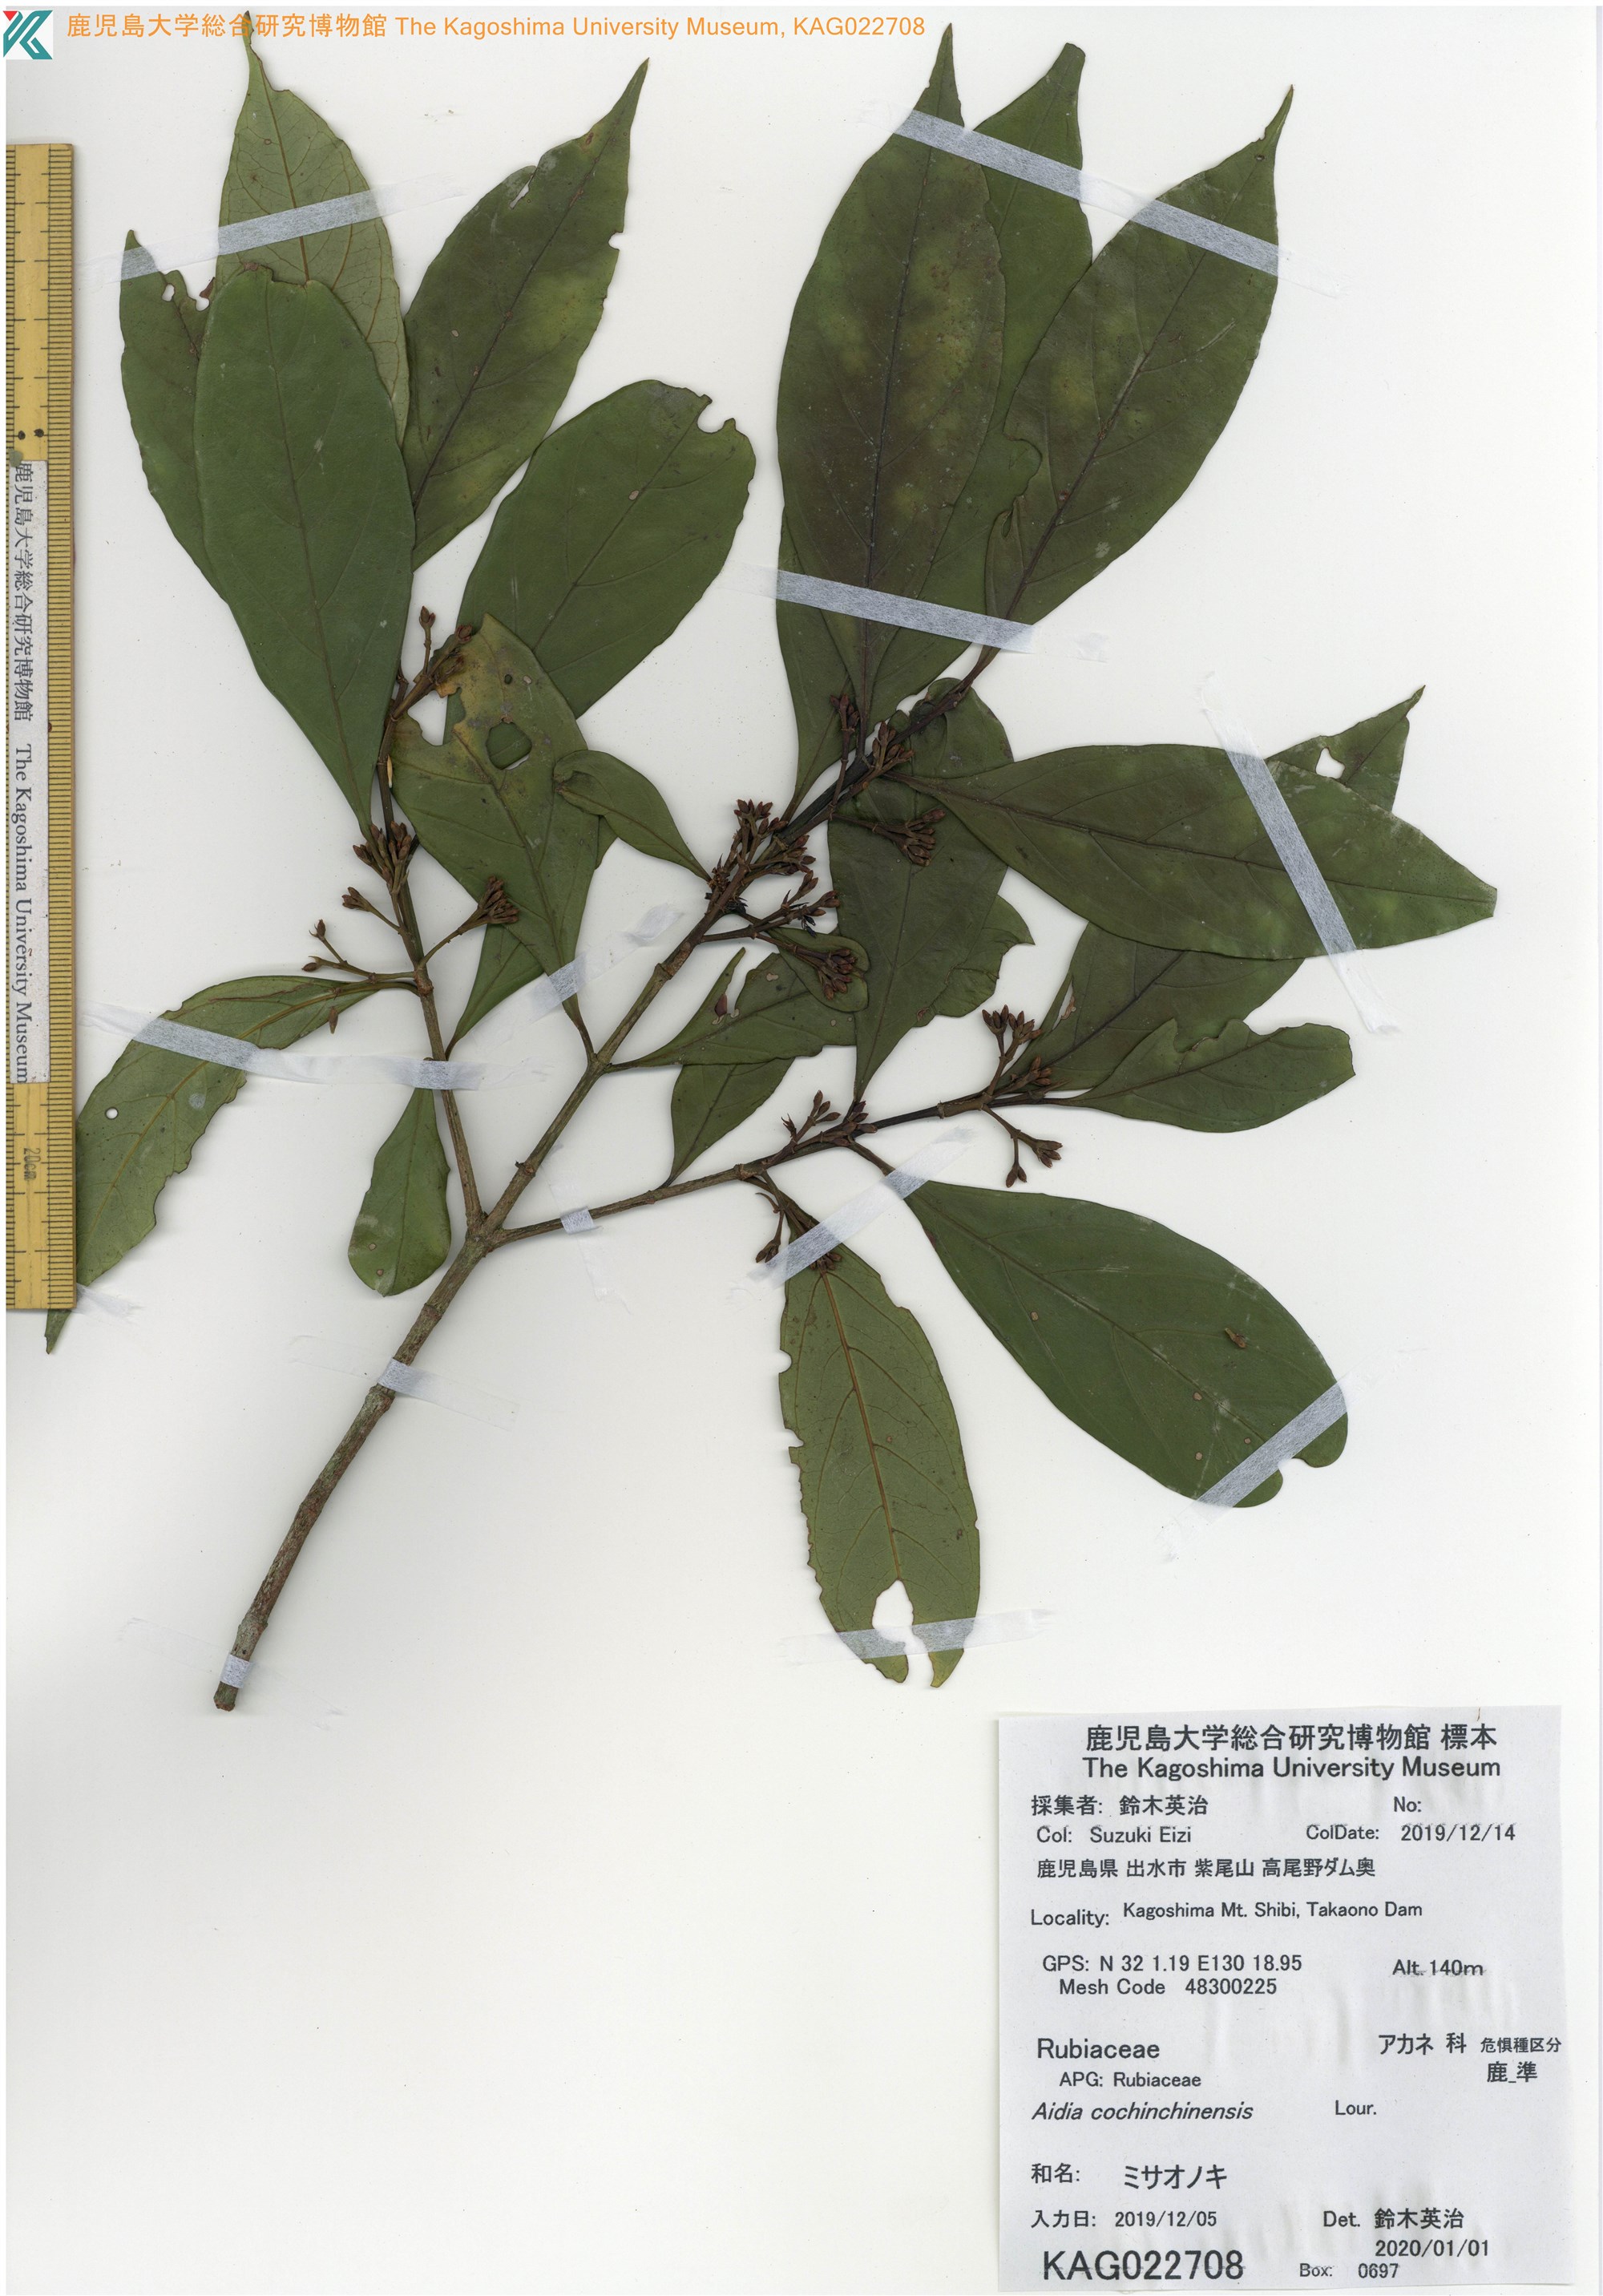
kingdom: Plantae
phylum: Tracheophyta
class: Magnoliopsida
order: Gentianales
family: Rubiaceae
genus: Aidia
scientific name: Aidia henryi
